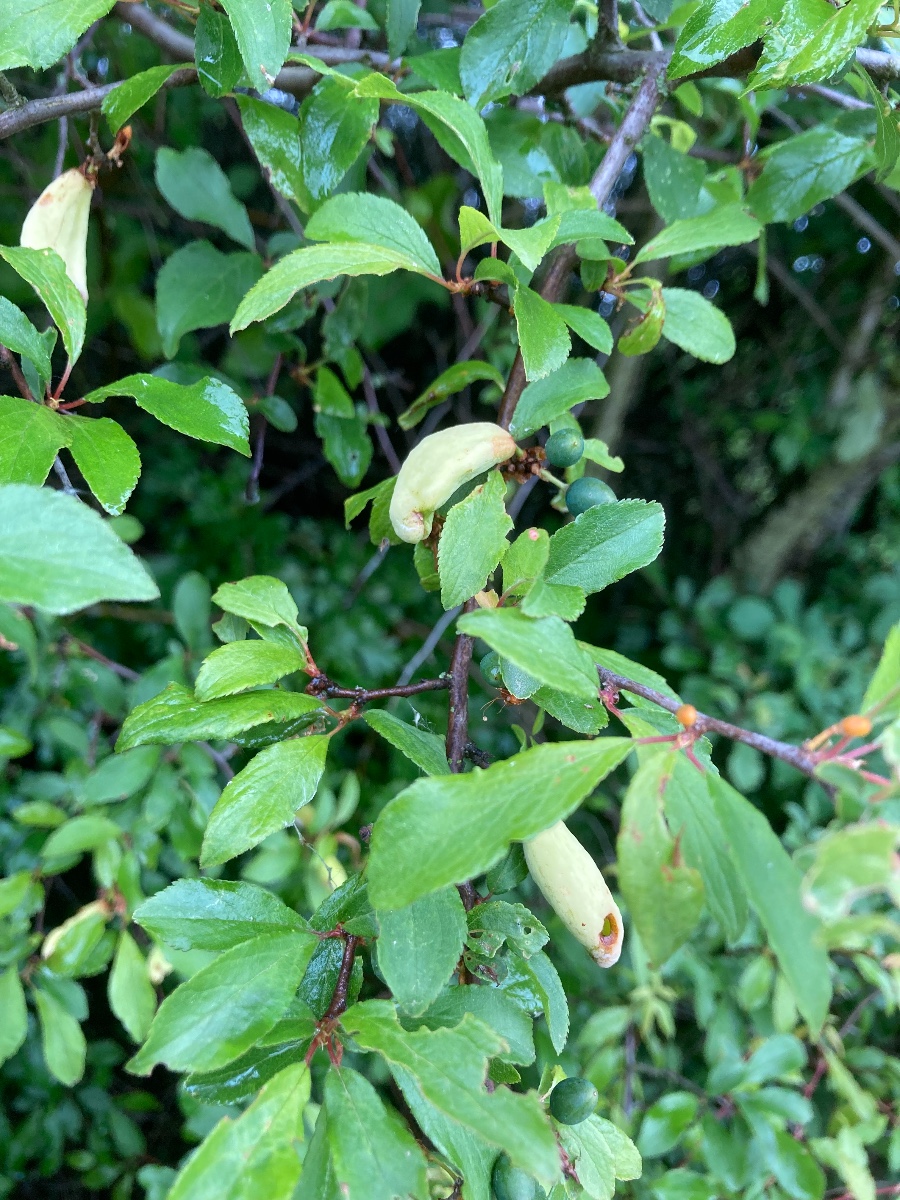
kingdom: Fungi
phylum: Ascomycota
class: Taphrinomycetes
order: Taphrinales
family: Taphrinaceae
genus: Taphrina
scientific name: Taphrina pruni
